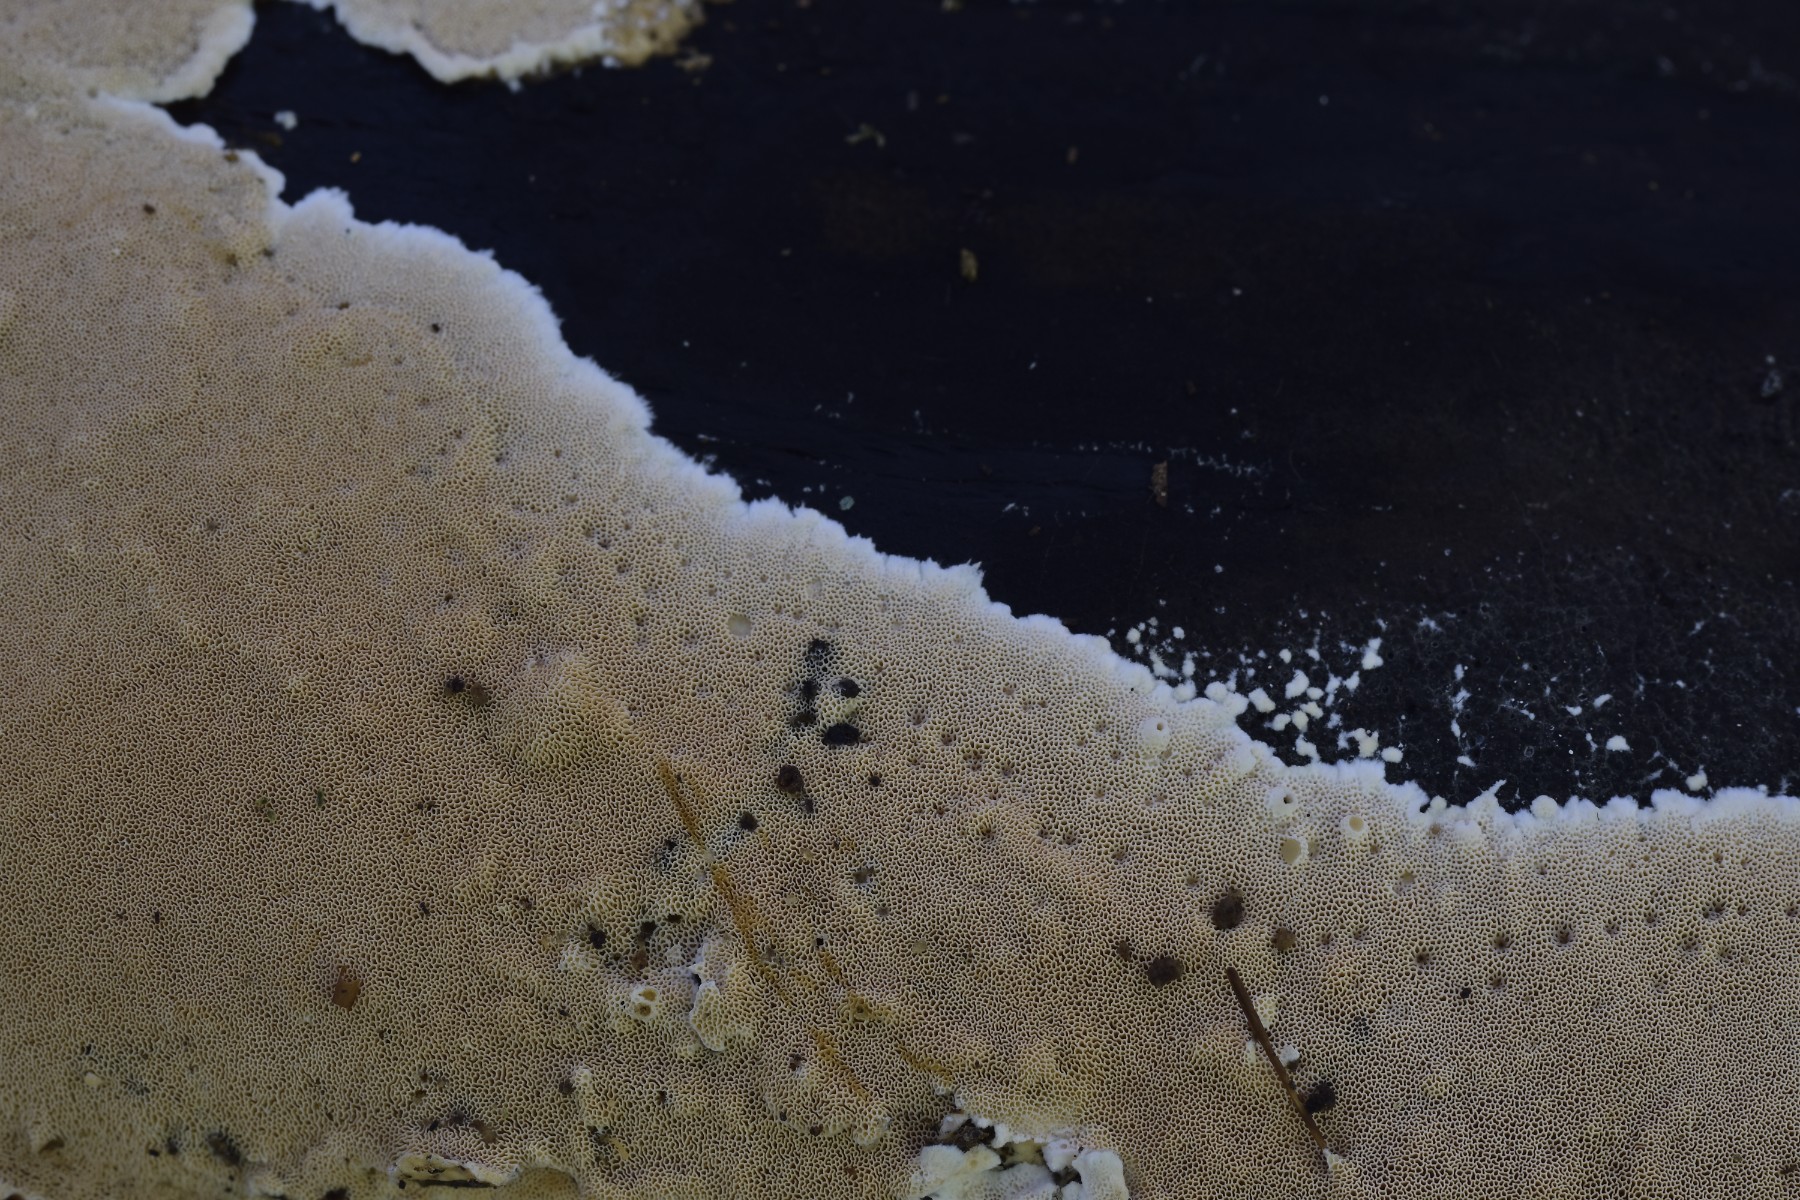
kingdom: Fungi
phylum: Basidiomycota
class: Agaricomycetes
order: Polyporales
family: Steccherinaceae
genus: Junghuhnia
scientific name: Junghuhnia nitida
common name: almindelig skønporesvamp
